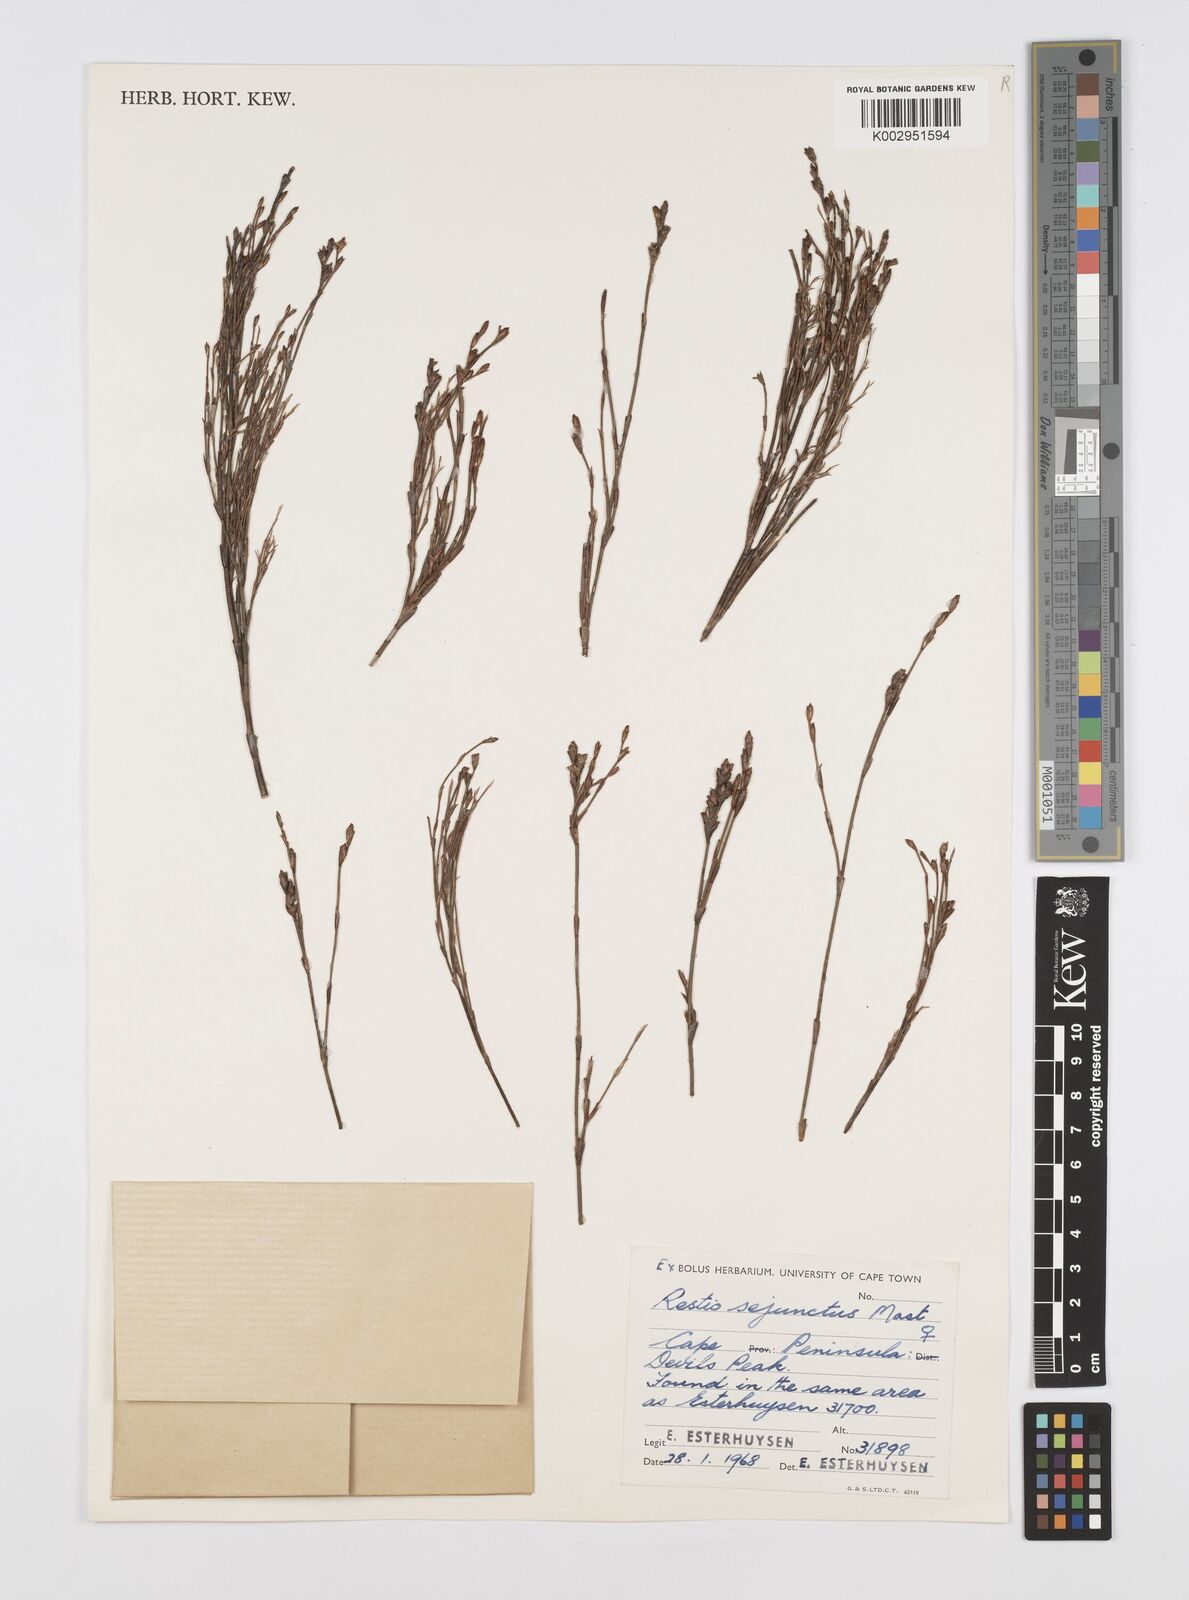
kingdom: Plantae
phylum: Tracheophyta
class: Liliopsida
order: Poales
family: Restionaceae
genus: Restio
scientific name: Restio sejunctus
